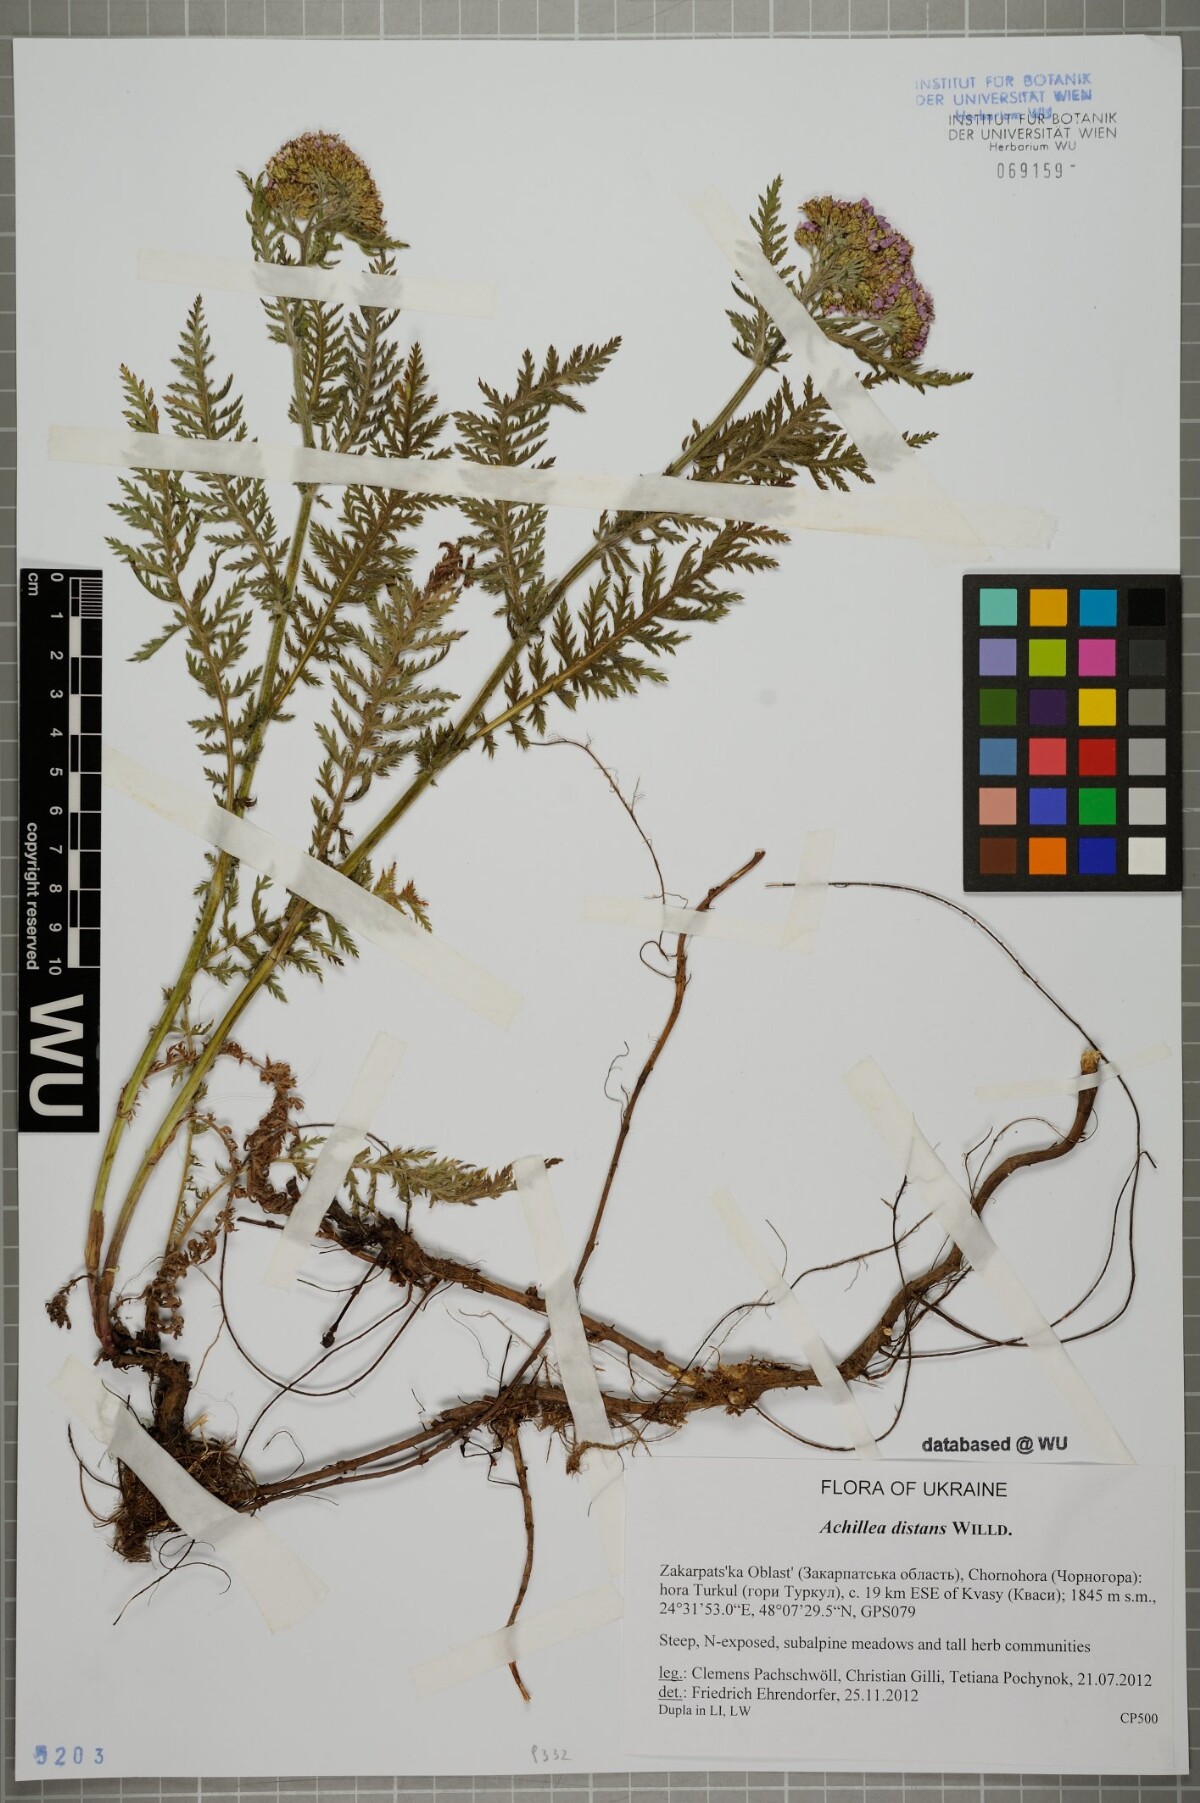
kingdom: Plantae
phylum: Tracheophyta
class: Magnoliopsida
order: Asterales
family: Asteraceae
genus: Achillea
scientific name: Achillea distans
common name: Tall yarrow
